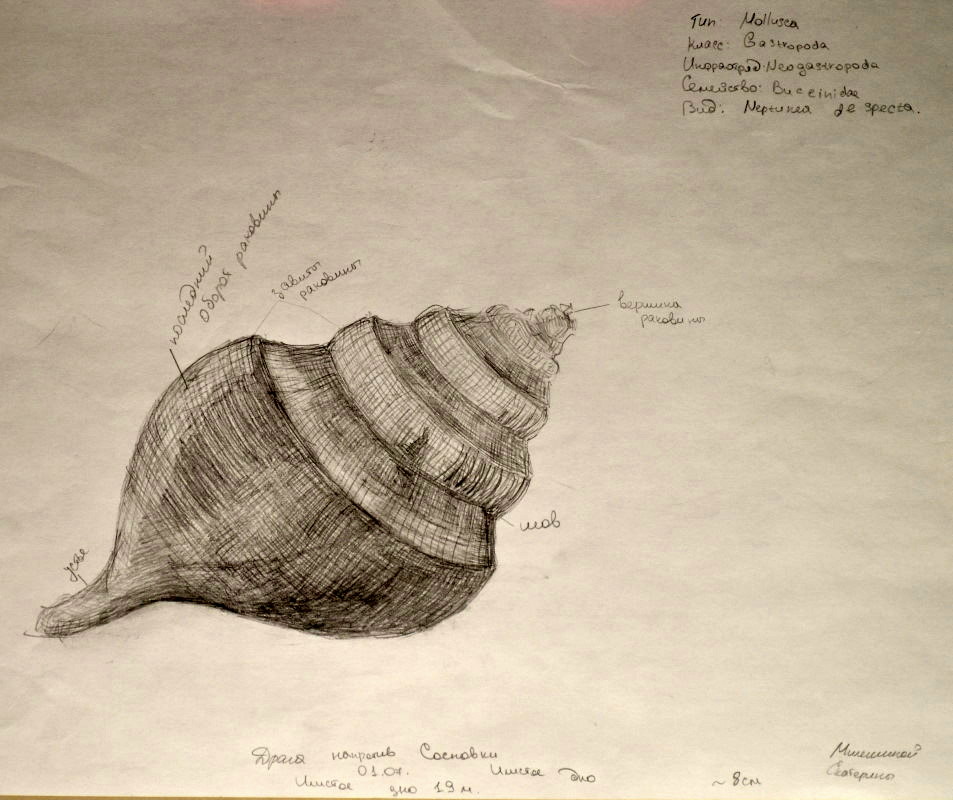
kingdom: Animalia
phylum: Mollusca
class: Gastropoda
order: Neogastropoda
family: Buccinidae
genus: Neptunea
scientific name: Neptunea despecta
